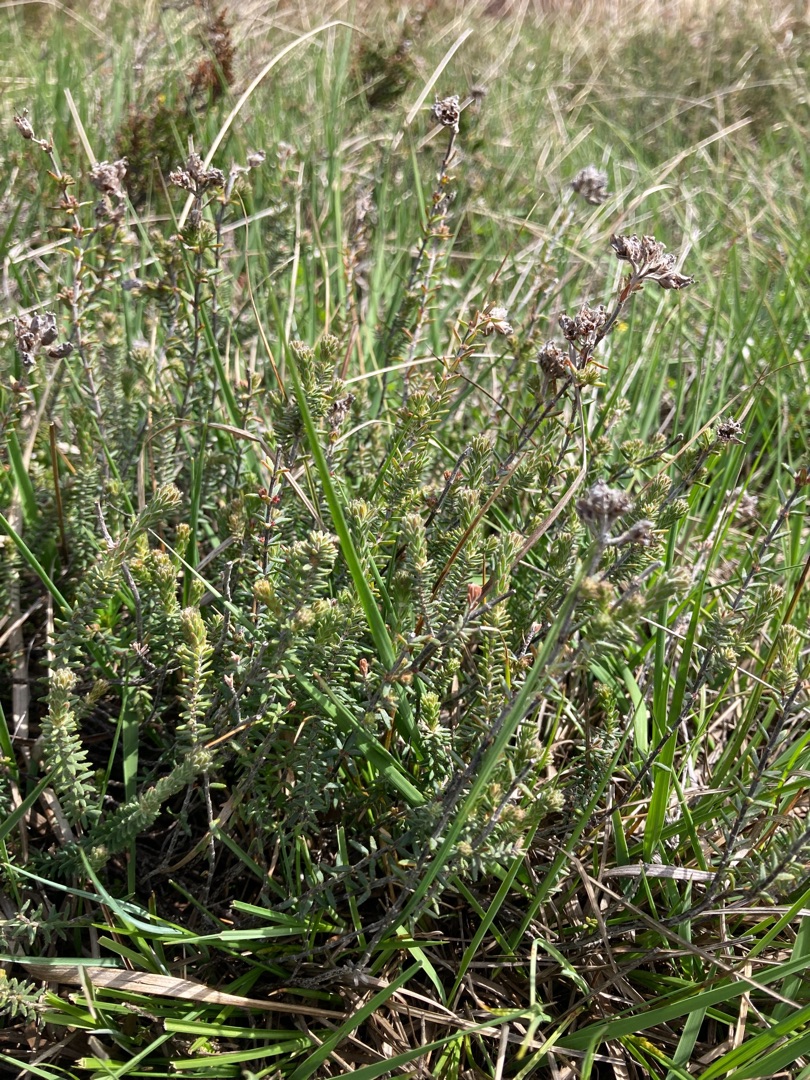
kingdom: Plantae
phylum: Tracheophyta
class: Magnoliopsida
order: Ericales
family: Ericaceae
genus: Erica
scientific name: Erica tetralix
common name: Klokkelyng
